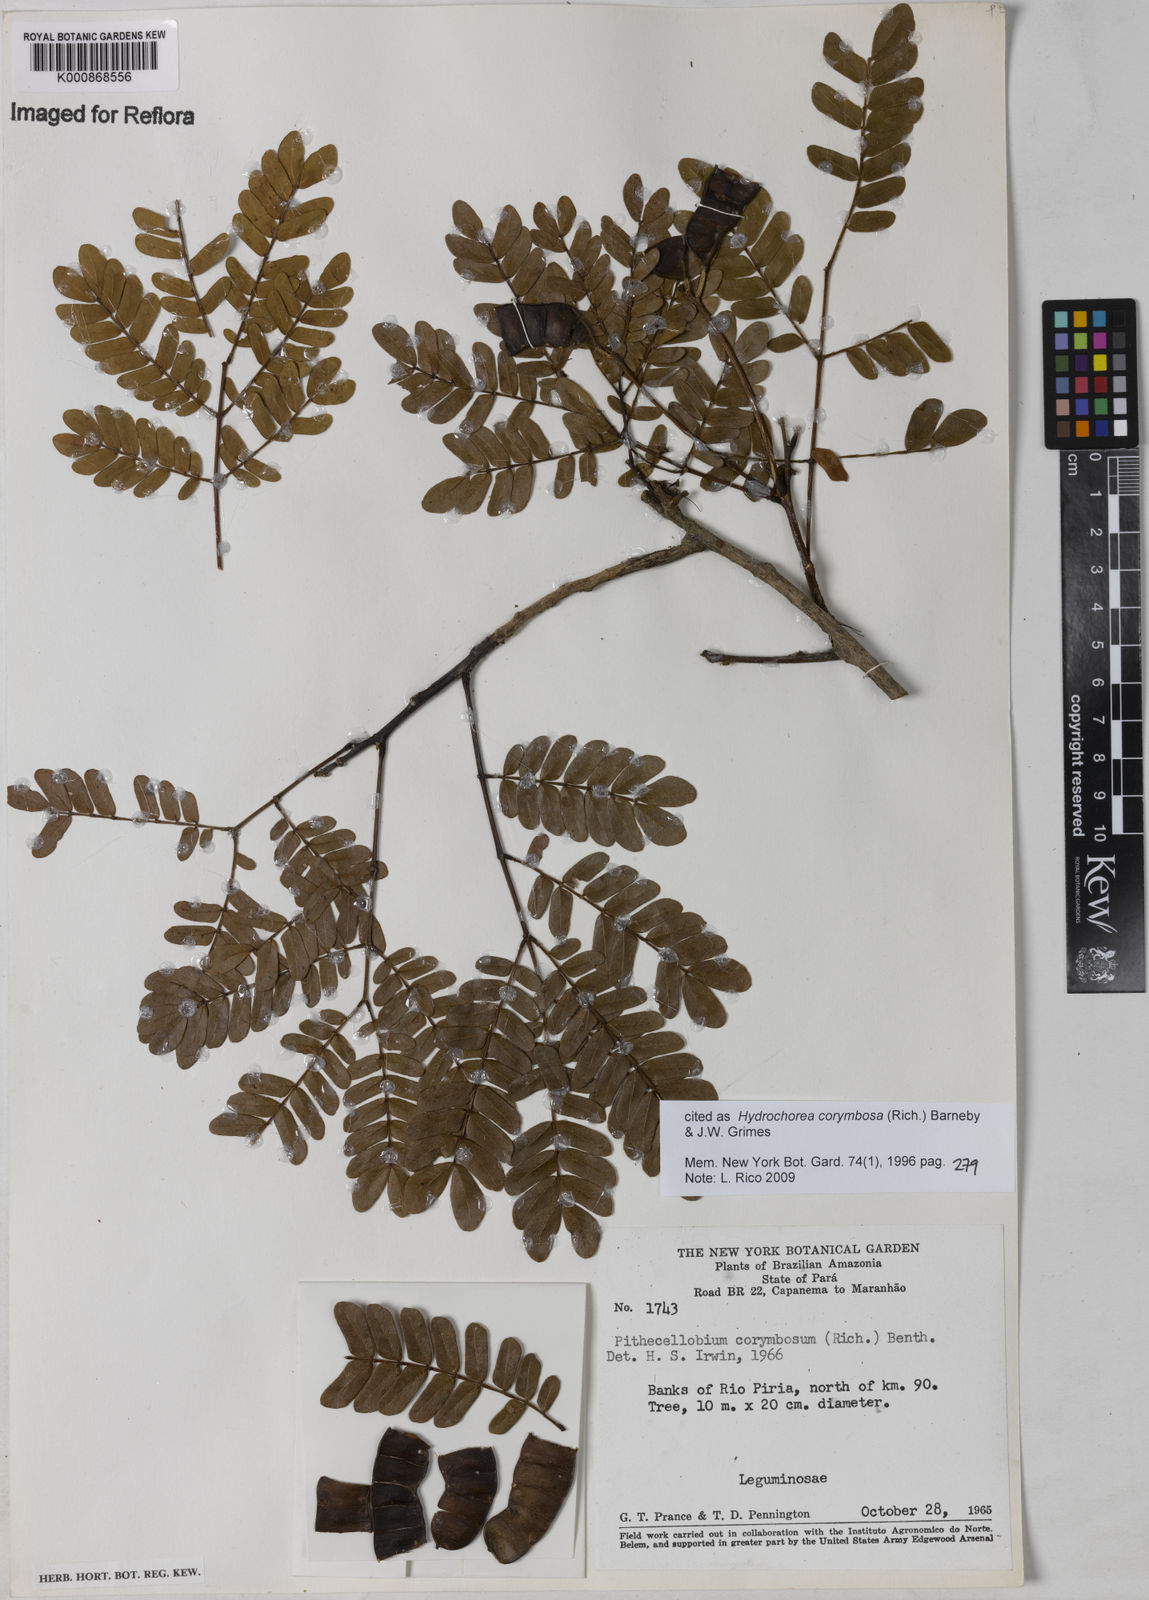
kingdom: Plantae
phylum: Tracheophyta
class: Magnoliopsida
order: Fabales
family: Fabaceae
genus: Hydrochorea
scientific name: Hydrochorea corymbosa
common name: Swamp manariballi
